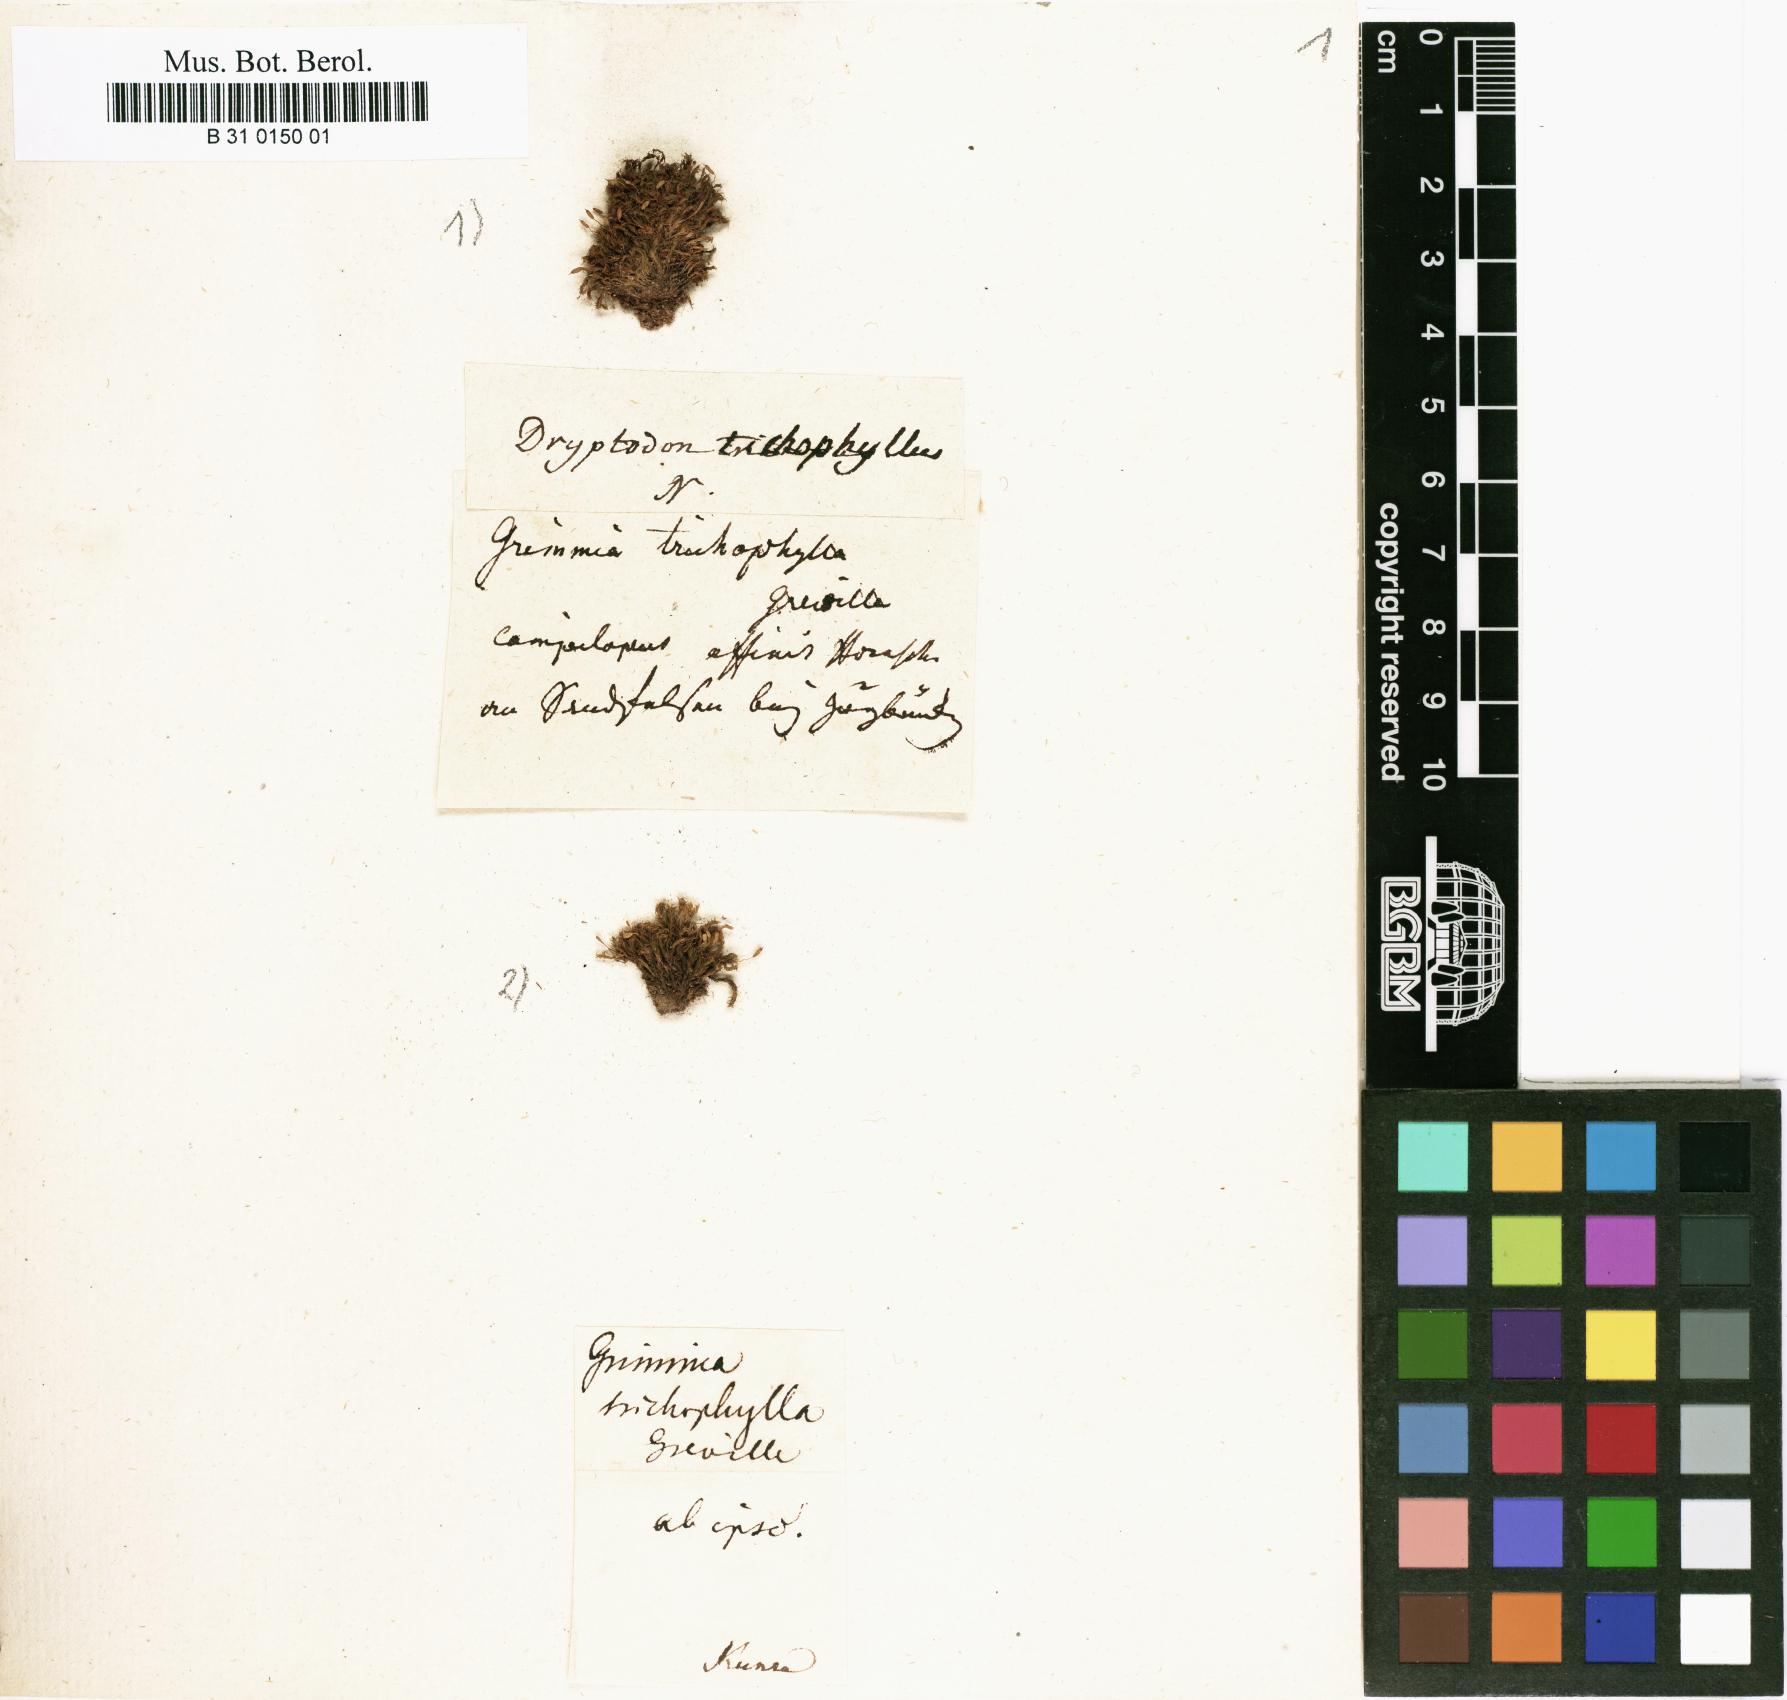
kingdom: Plantae
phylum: Bryophyta
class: Bryopsida
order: Grimmiales
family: Grimmiaceae
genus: Grimmia
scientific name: Grimmia trichophylla
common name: Hair-pointed grimmia
